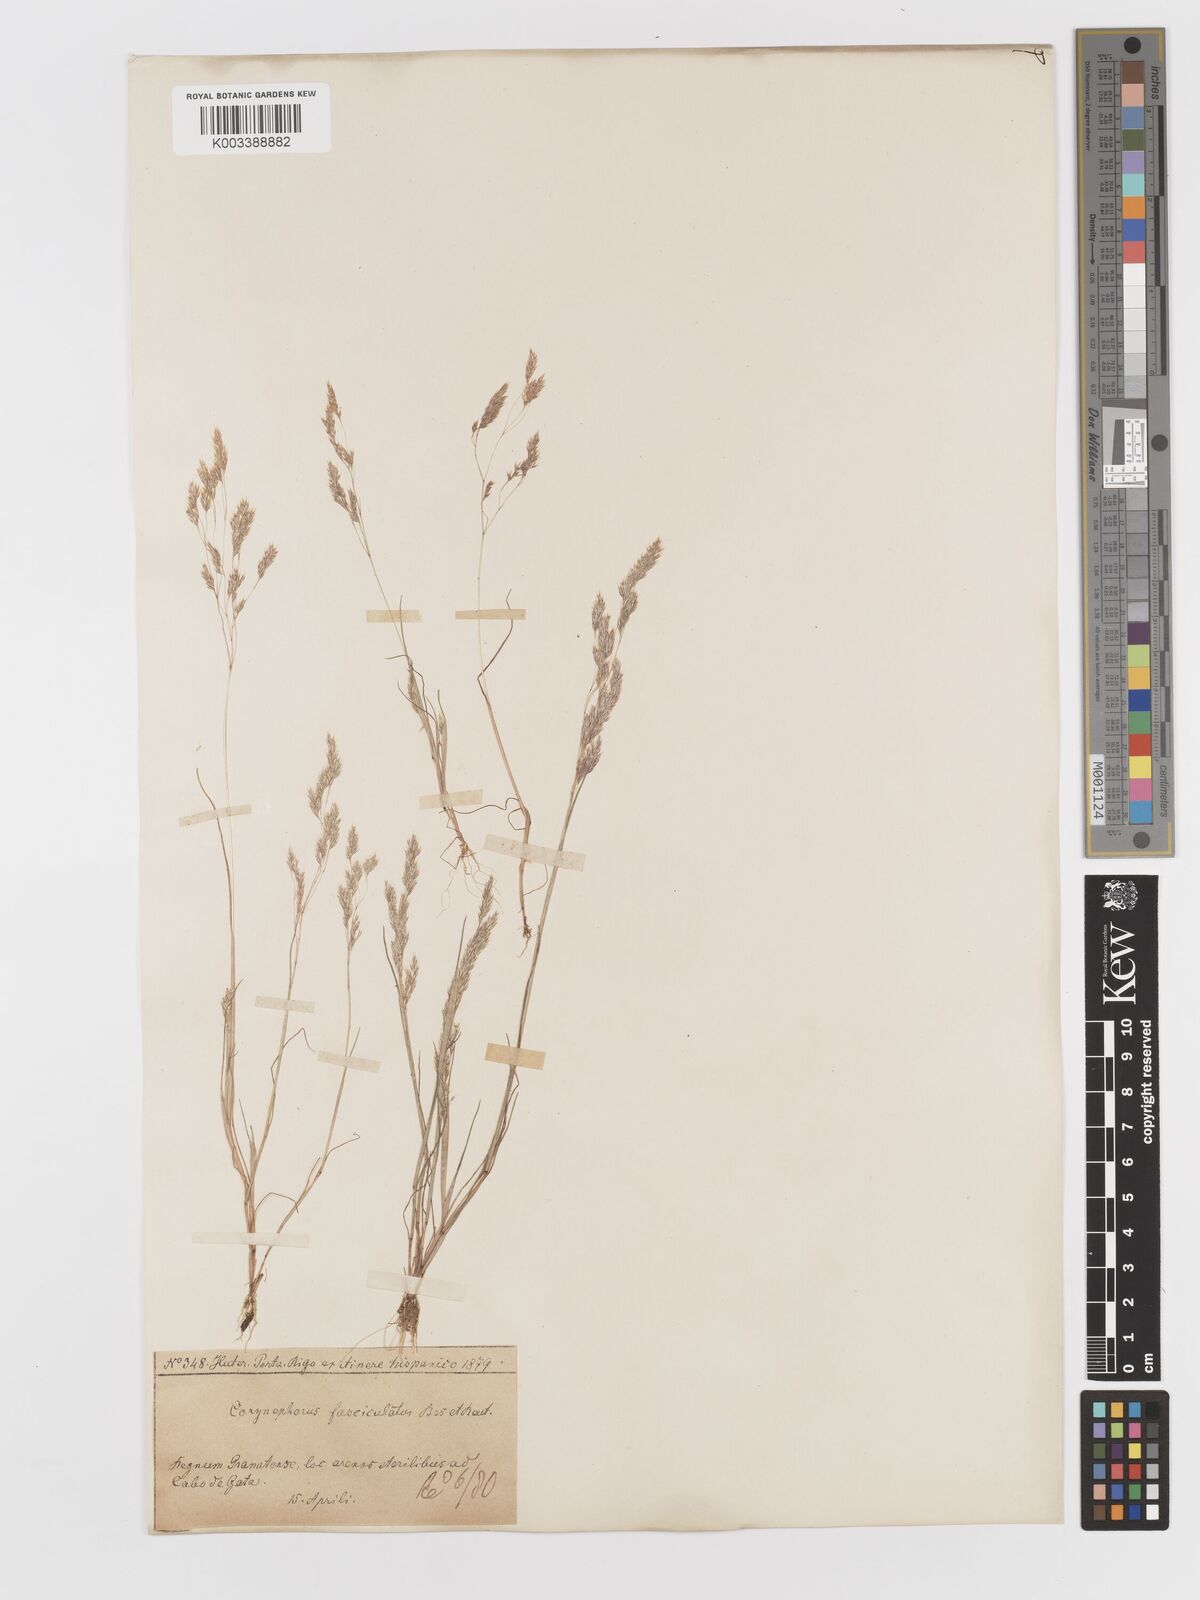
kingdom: Plantae
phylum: Tracheophyta
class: Liliopsida
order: Poales
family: Poaceae
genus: Corynephorus
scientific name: Corynephorus fasciculatus
